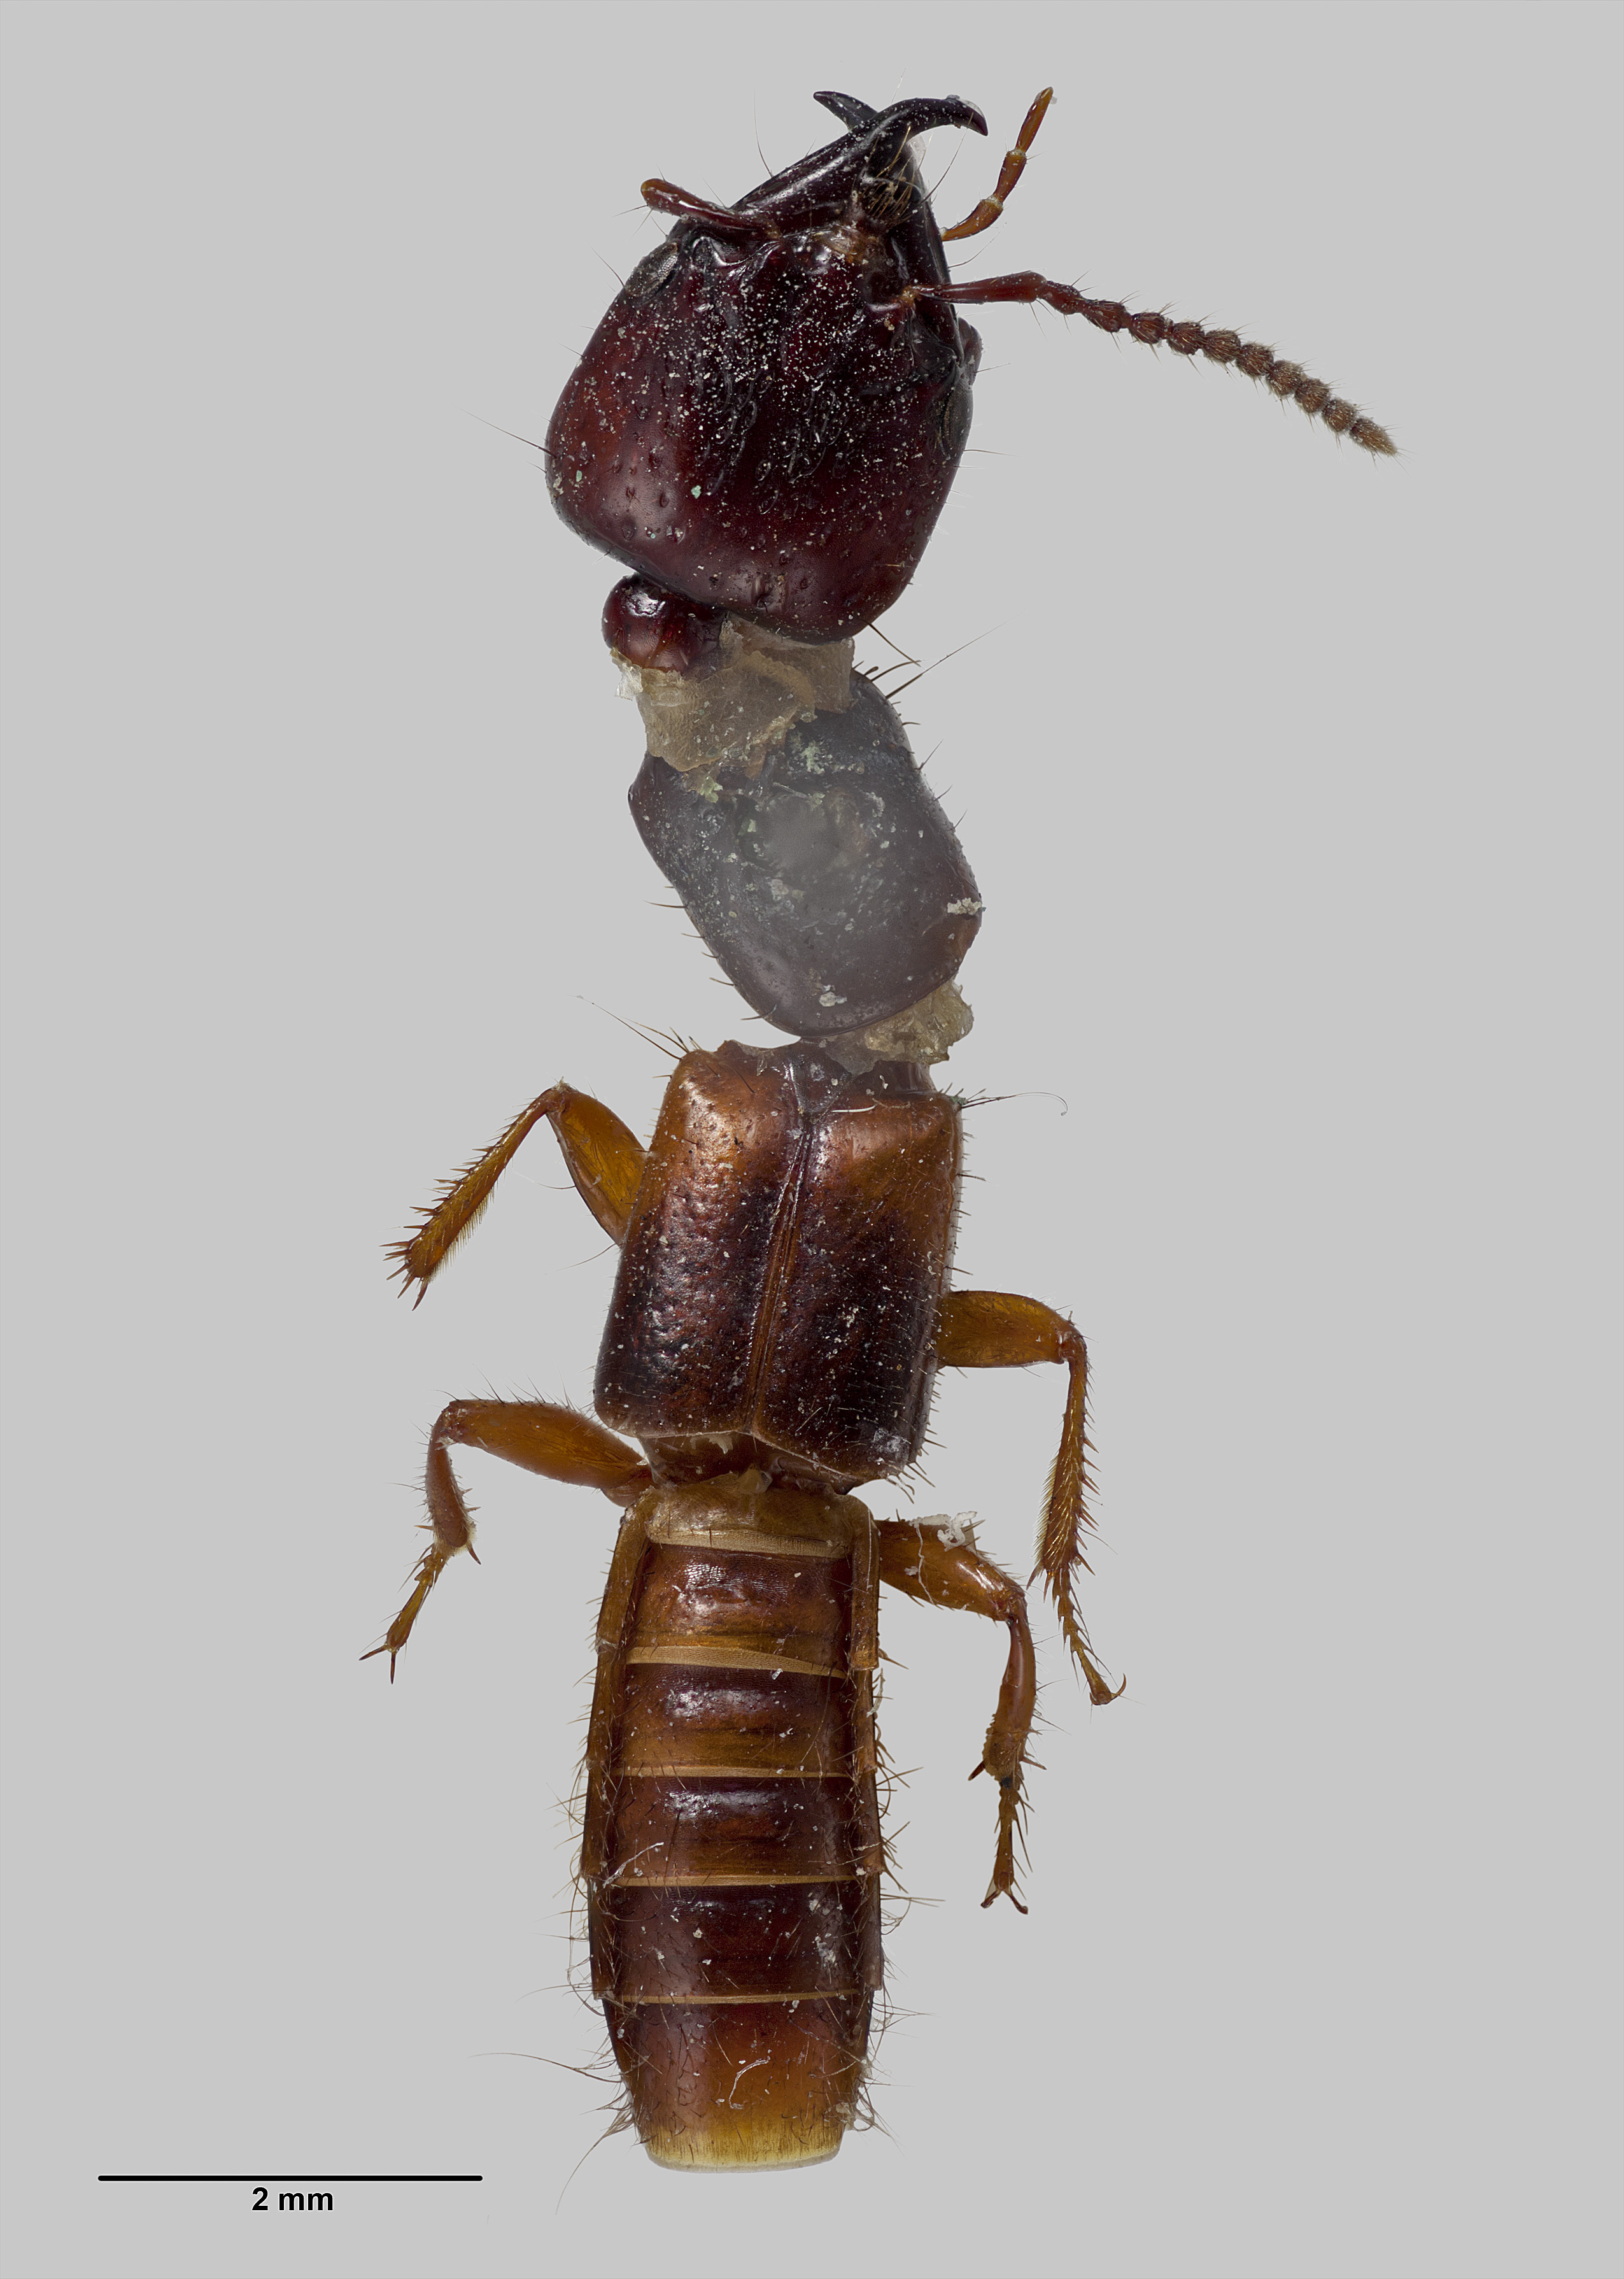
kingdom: Animalia
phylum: Arthropoda
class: Insecta
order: Coleoptera
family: Staphylinidae
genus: Pseudocorynus
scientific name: Pseudocorynus neozelandicus
